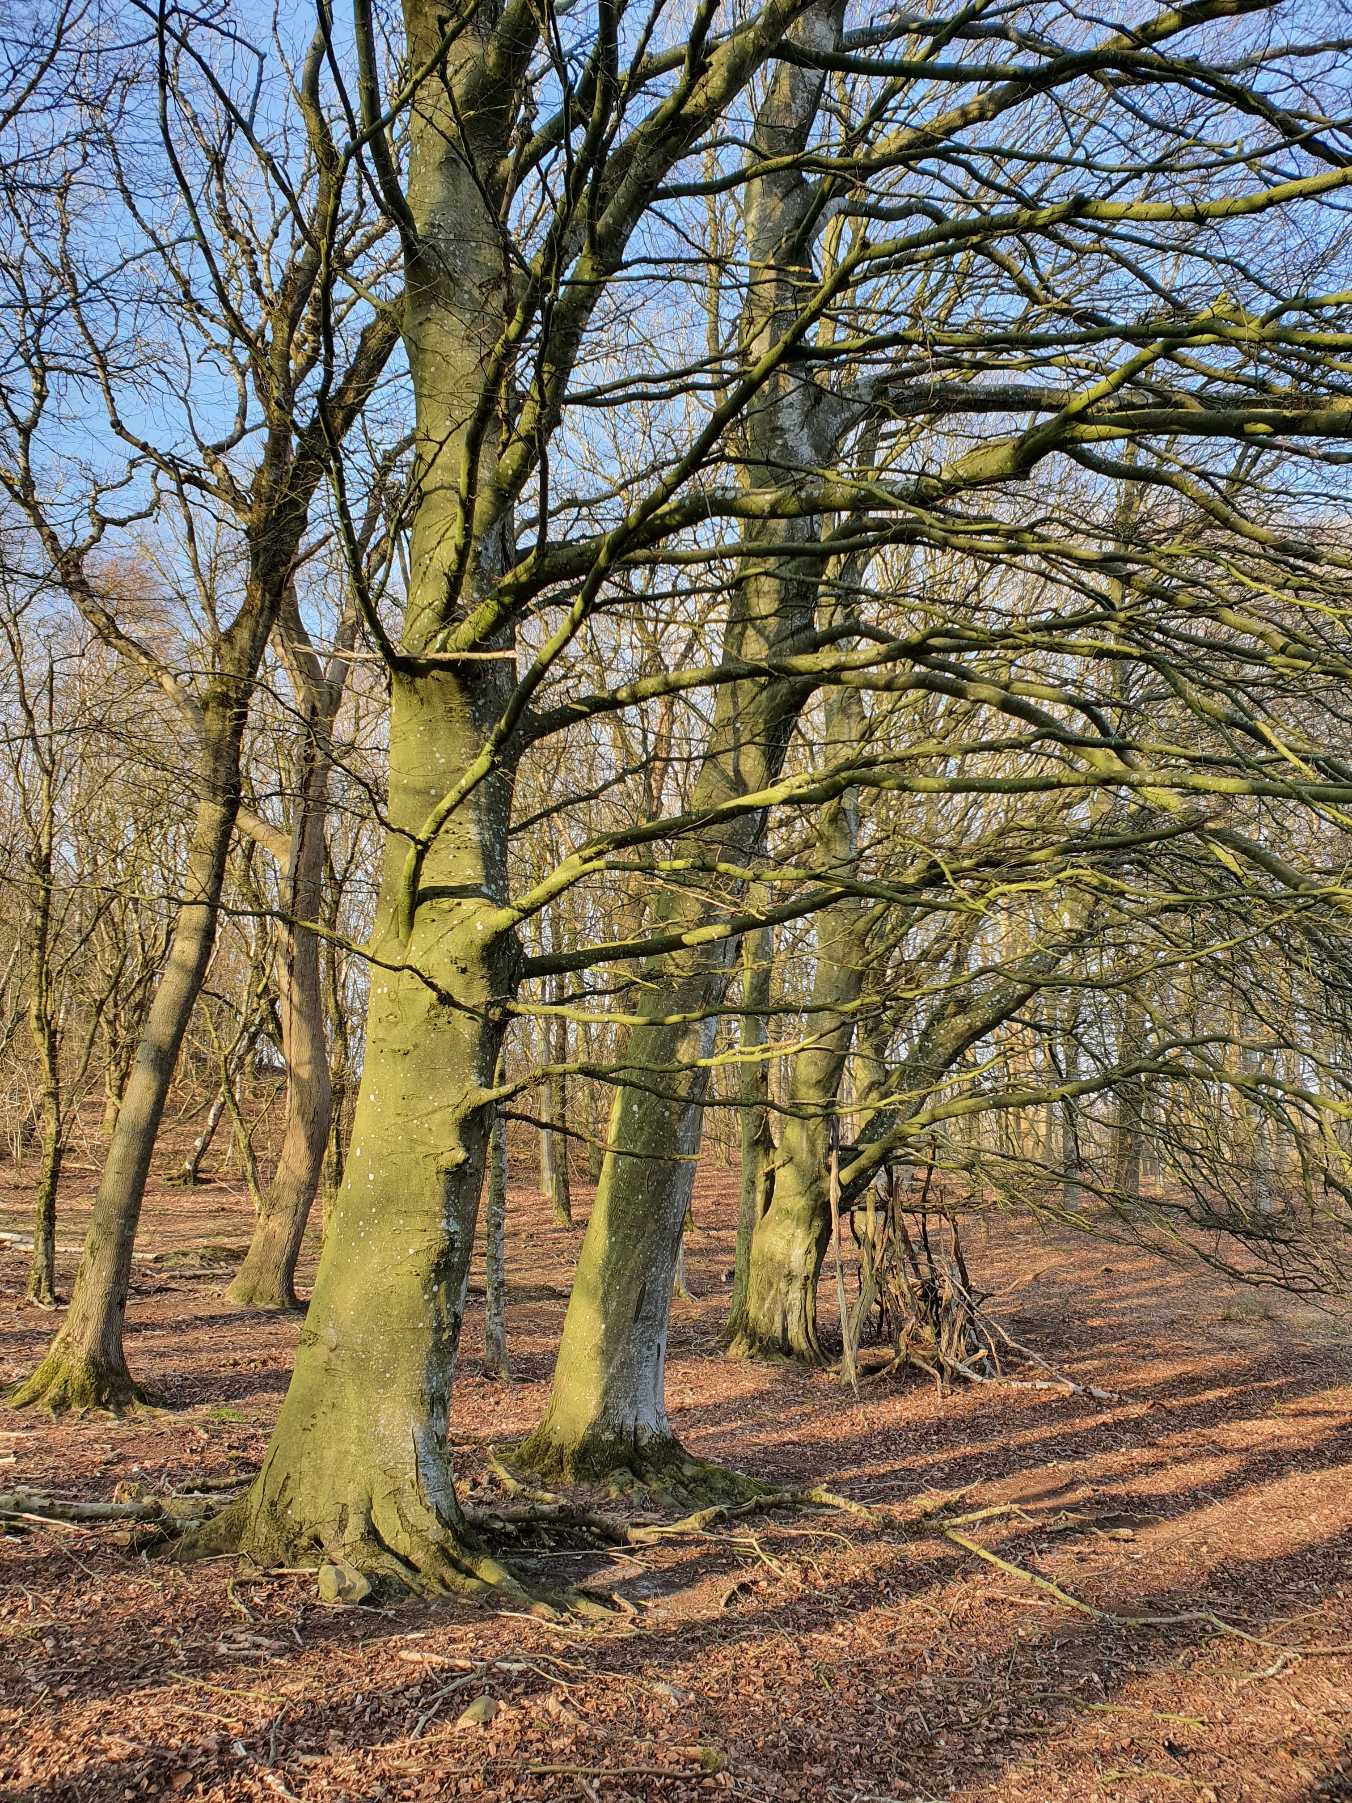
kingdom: Plantae
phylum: Tracheophyta
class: Magnoliopsida
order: Fagales
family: Fagaceae
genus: Fagus
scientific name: Fagus sylvatica
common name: Bøg
